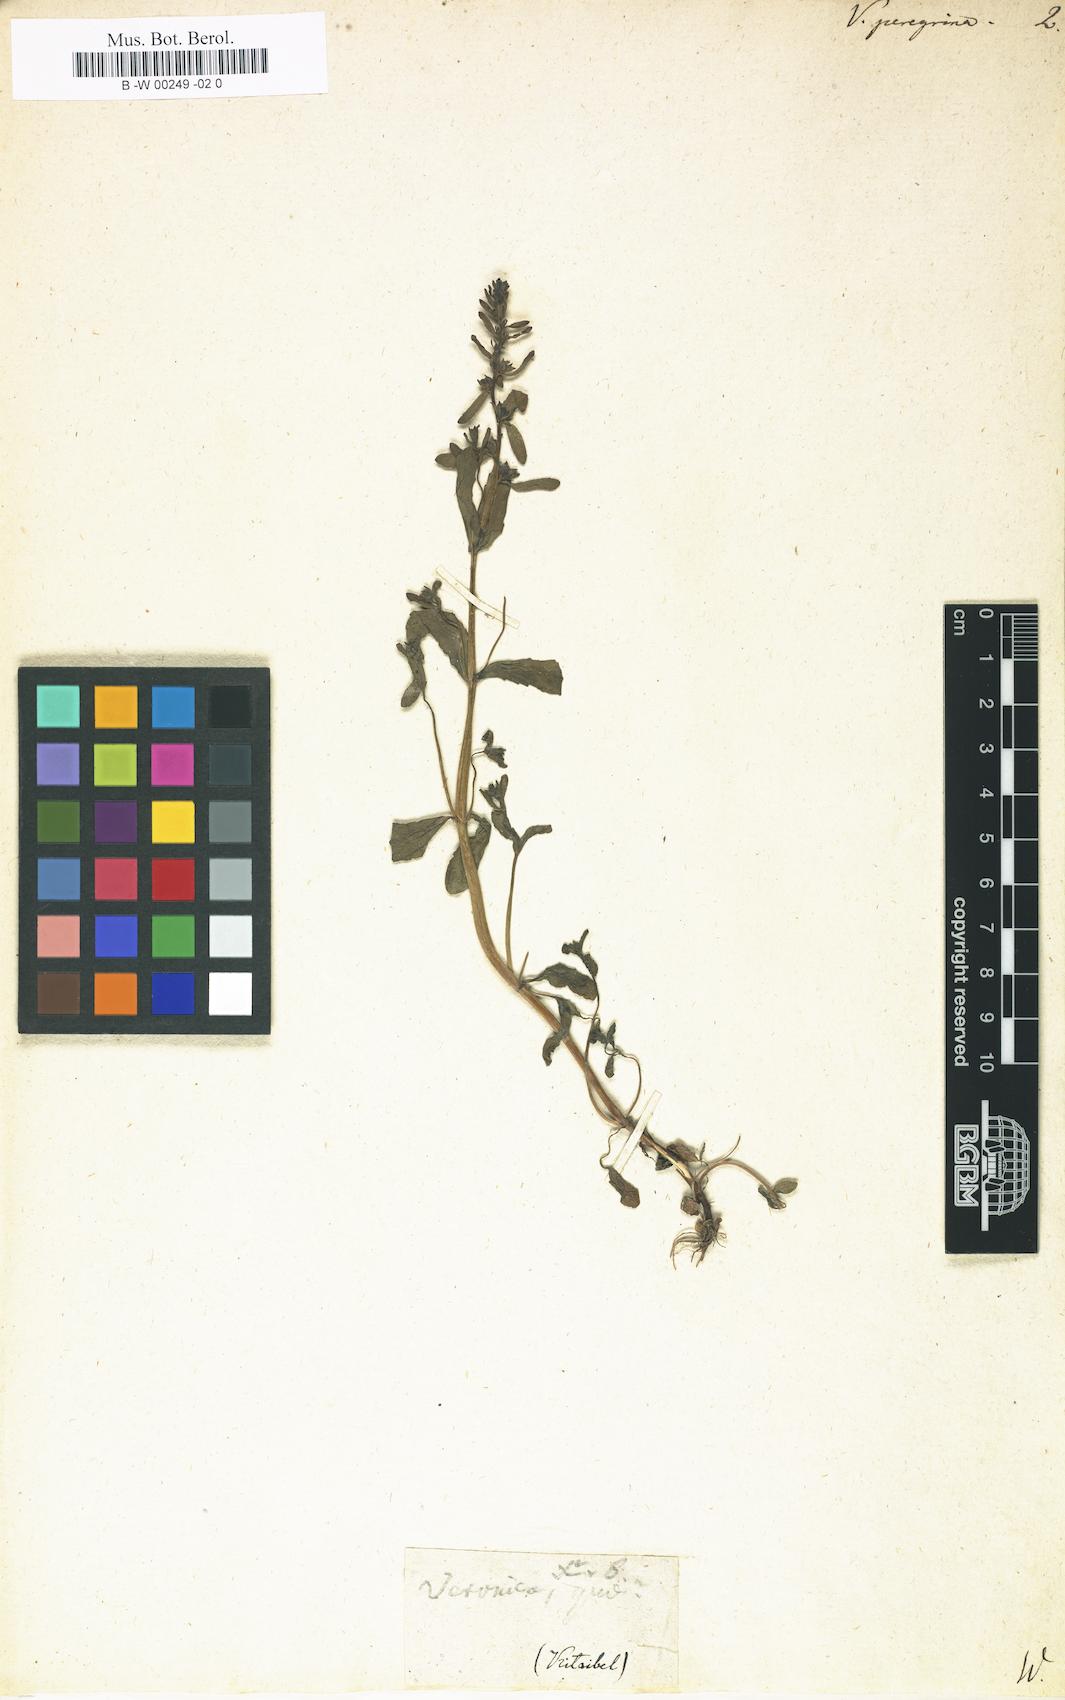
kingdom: Plantae
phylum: Tracheophyta
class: Magnoliopsida
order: Lamiales
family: Plantaginaceae
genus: Veronica
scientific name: Veronica peregrina
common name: Neckweed
